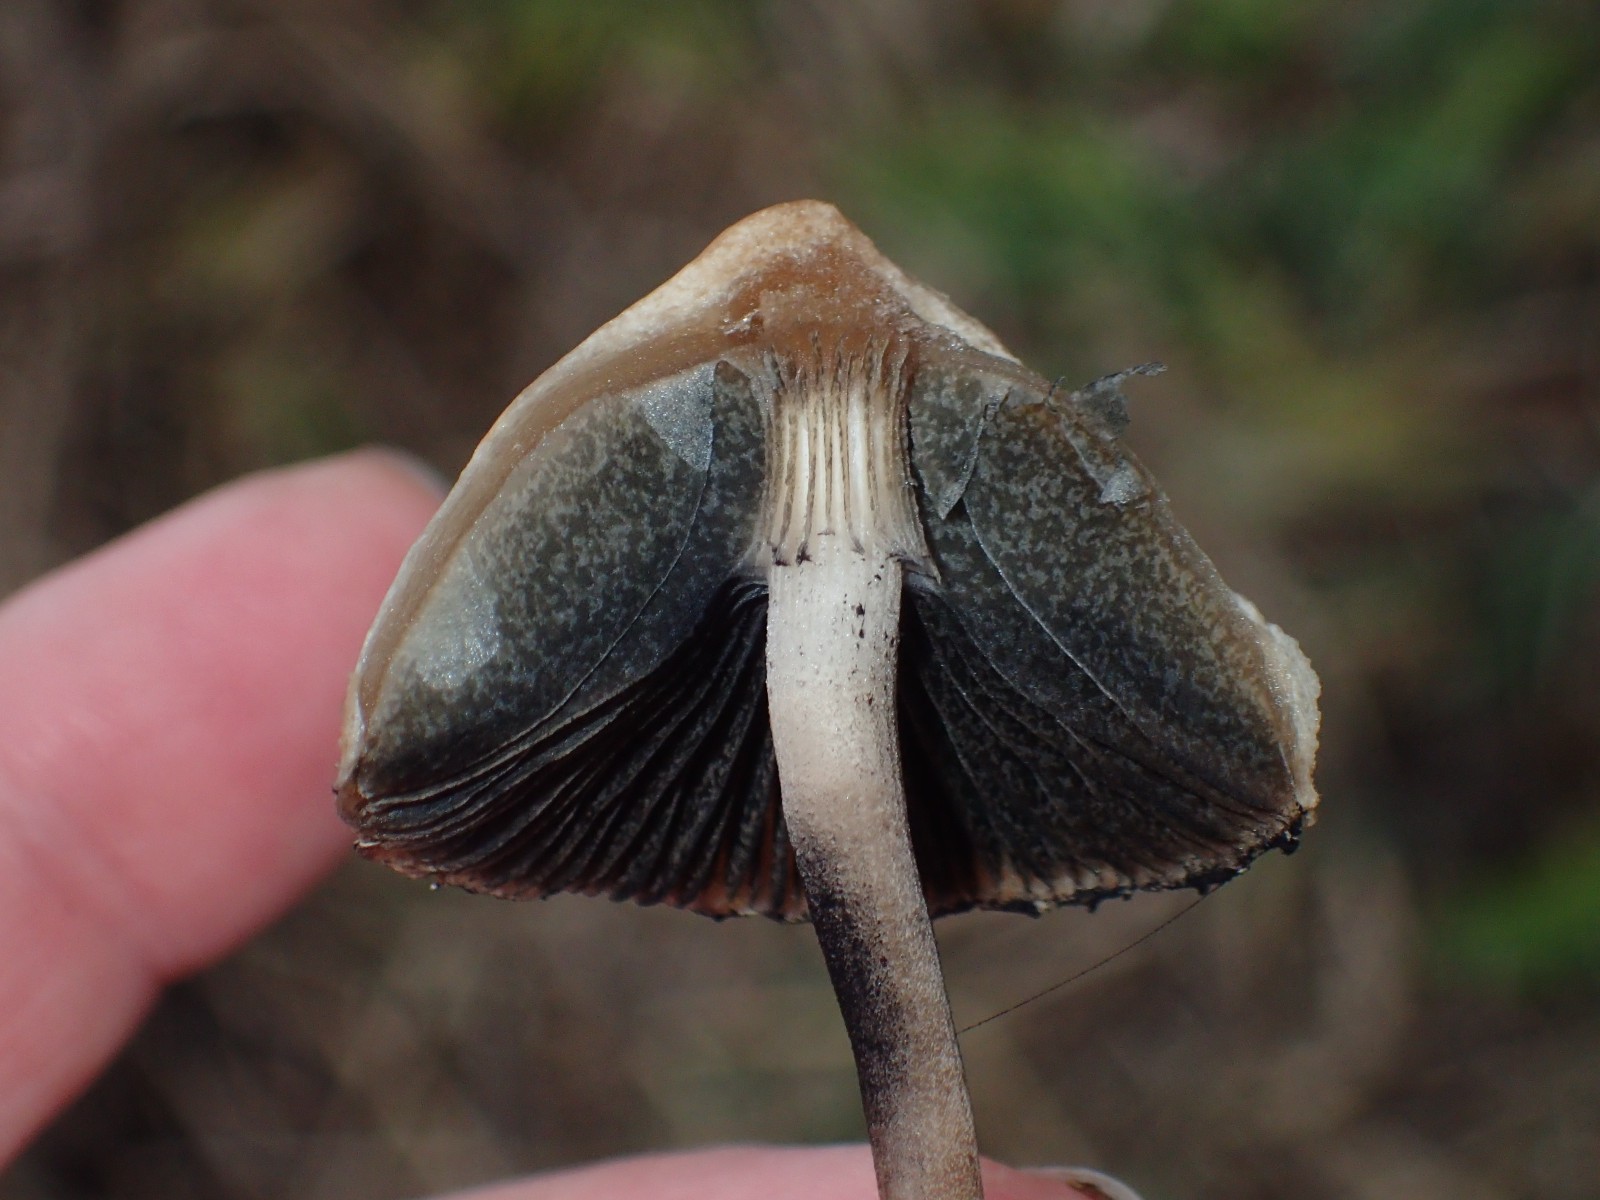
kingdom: Fungi
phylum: Basidiomycota
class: Agaricomycetes
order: Agaricales
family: Bolbitiaceae
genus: Panaeolus
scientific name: Panaeolus papilionaceus
